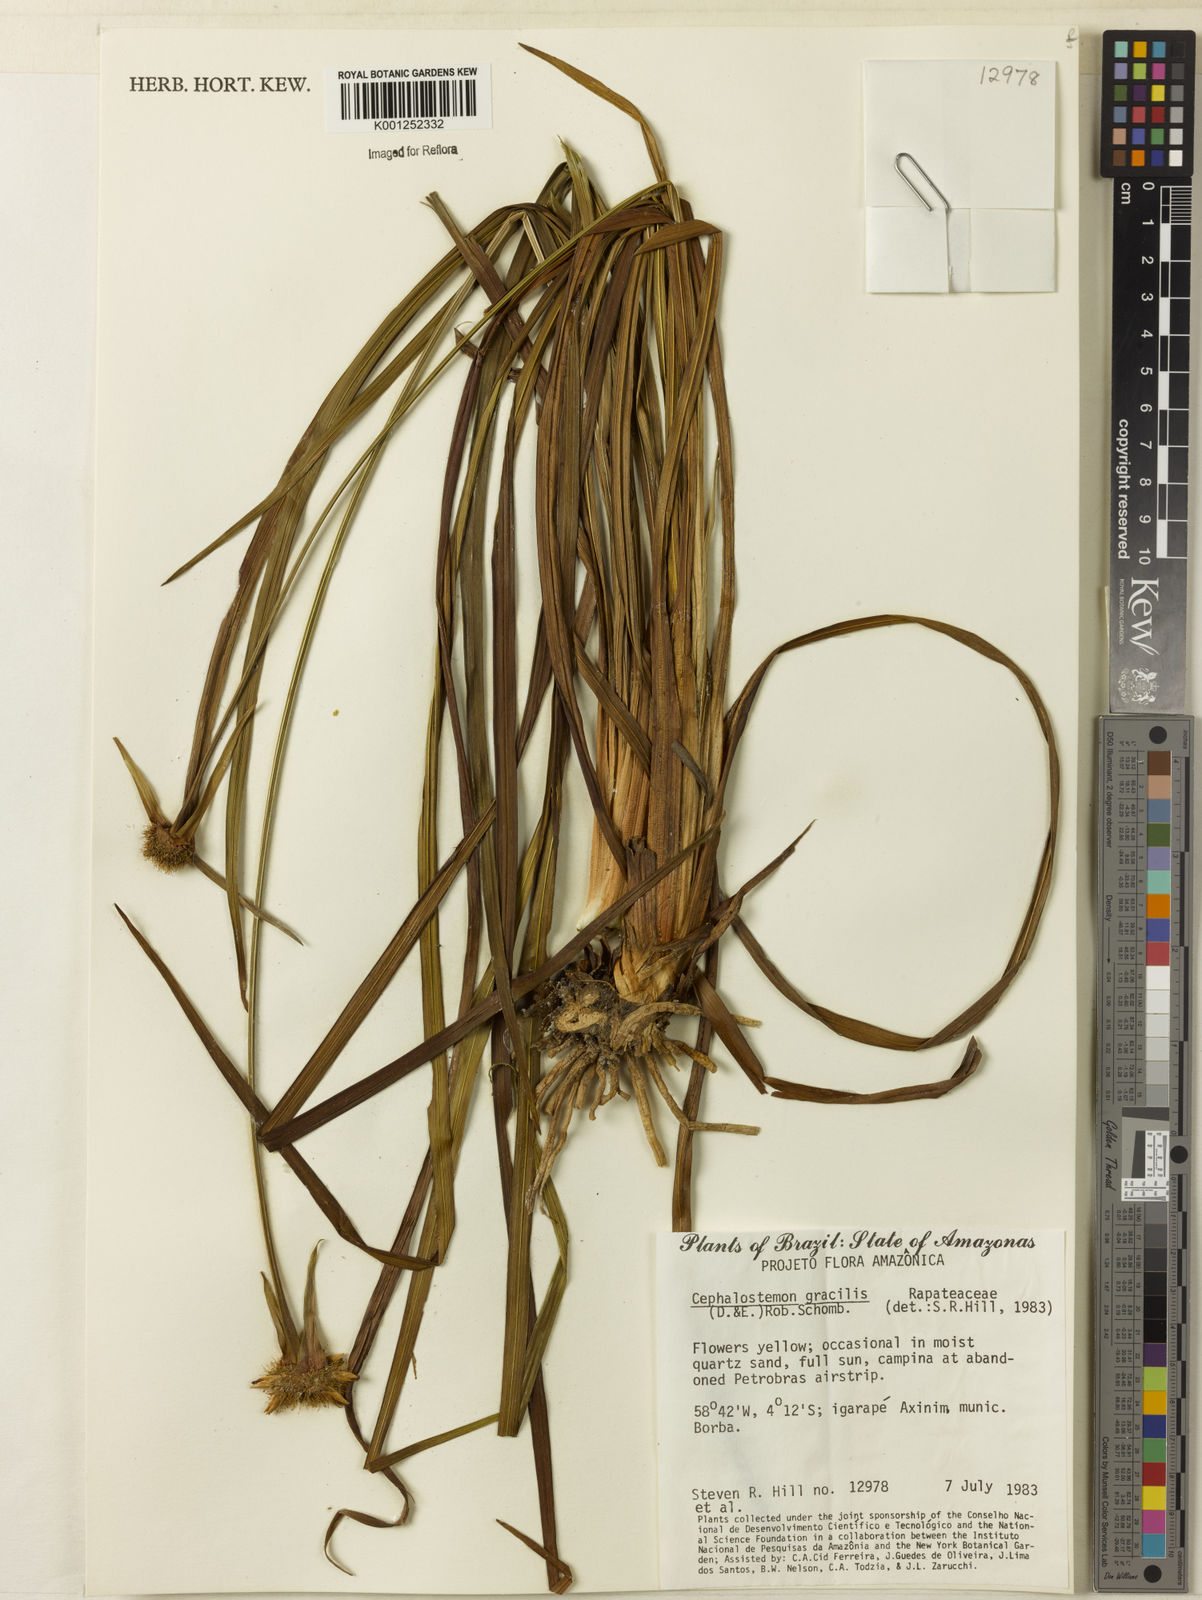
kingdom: Plantae
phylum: Tracheophyta
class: Liliopsida
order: Poales
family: Rapateaceae
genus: Cephalostemon
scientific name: Cephalostemon gracilis
